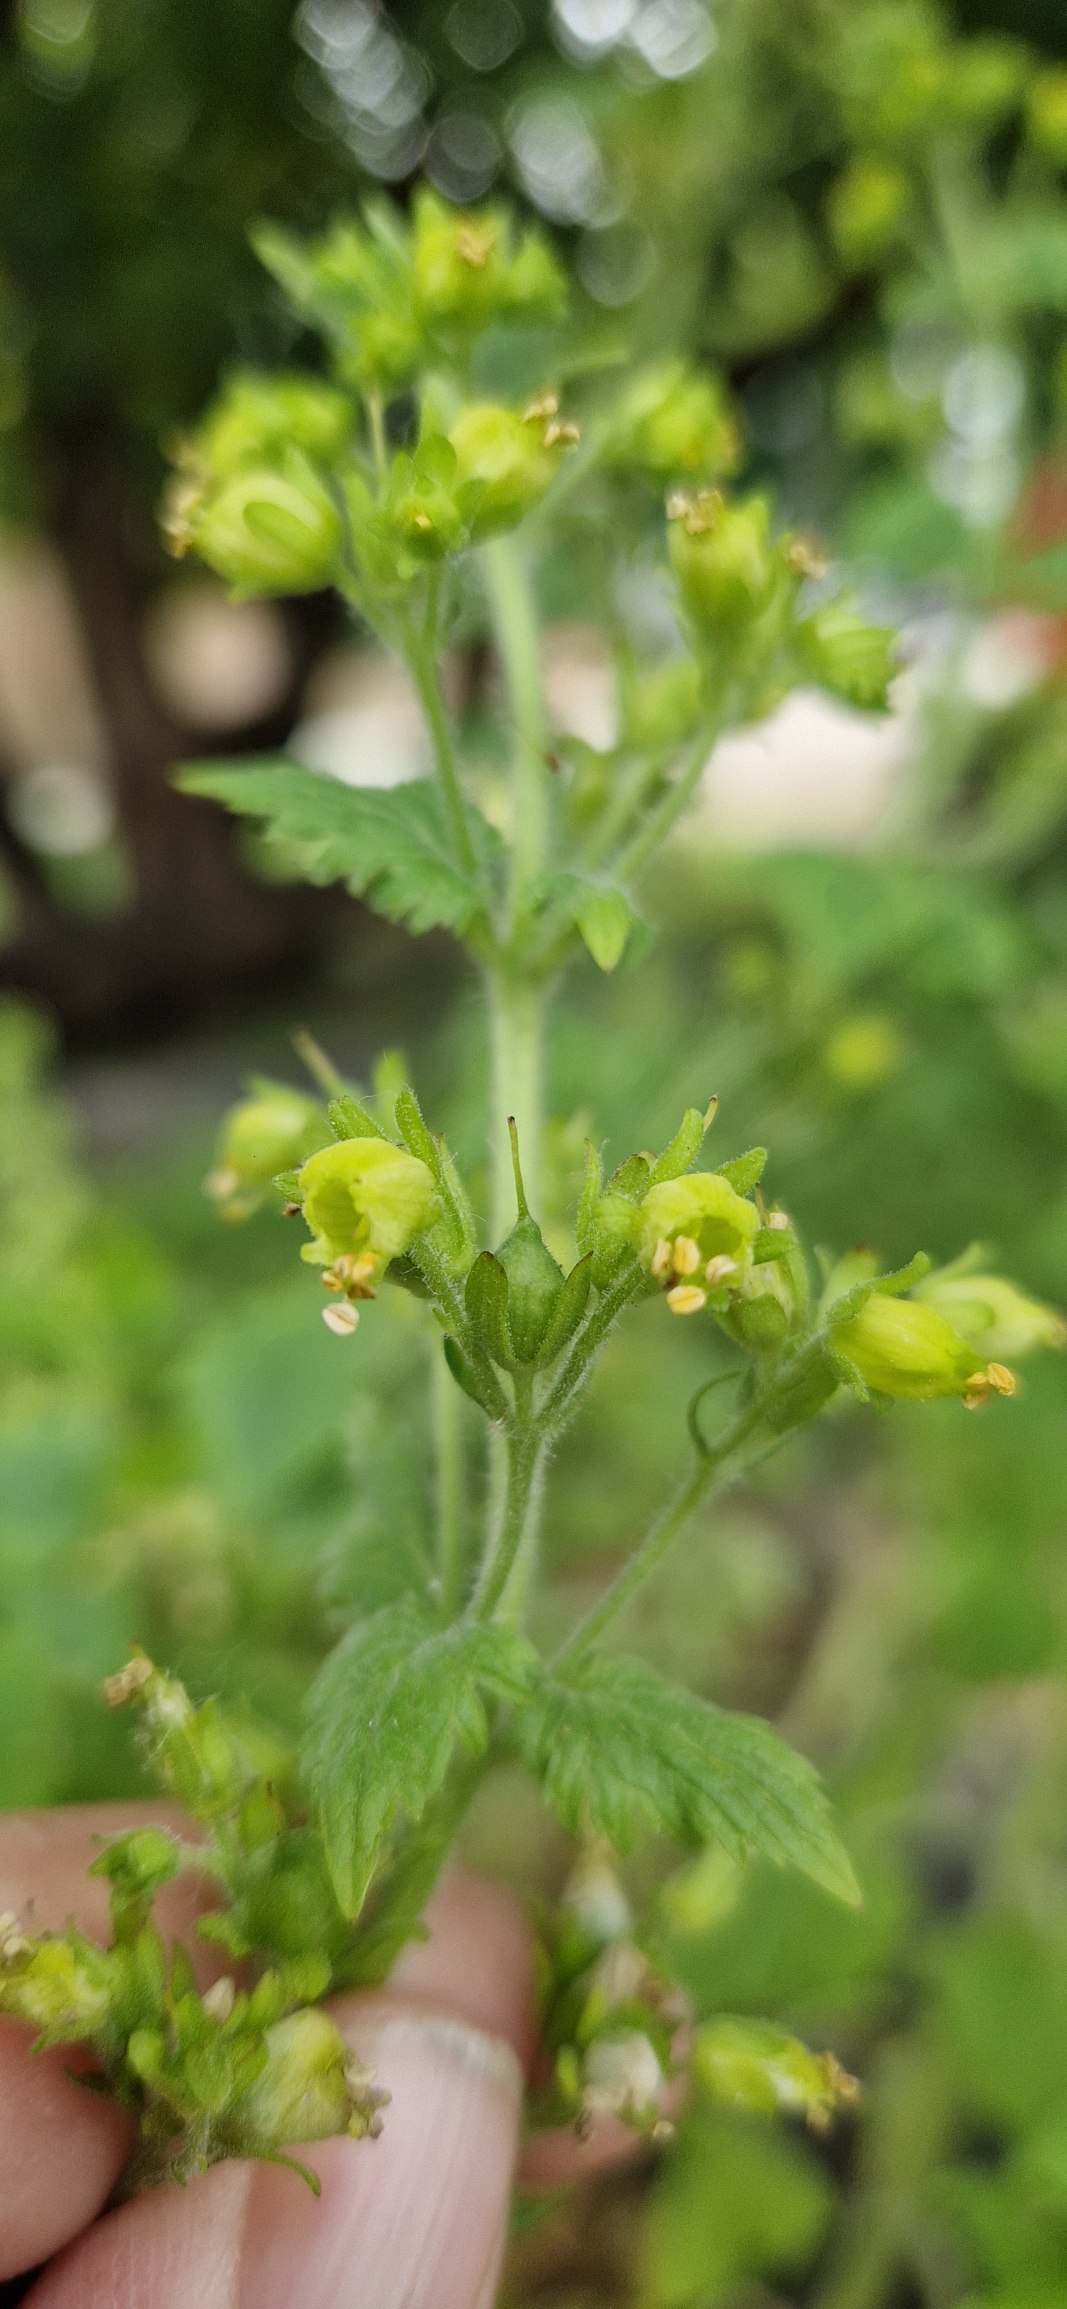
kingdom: Plantae
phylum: Tracheophyta
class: Magnoliopsida
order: Lamiales
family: Scrophulariaceae
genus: Scrophularia
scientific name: Scrophularia vernalis
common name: Vår-brunrod
